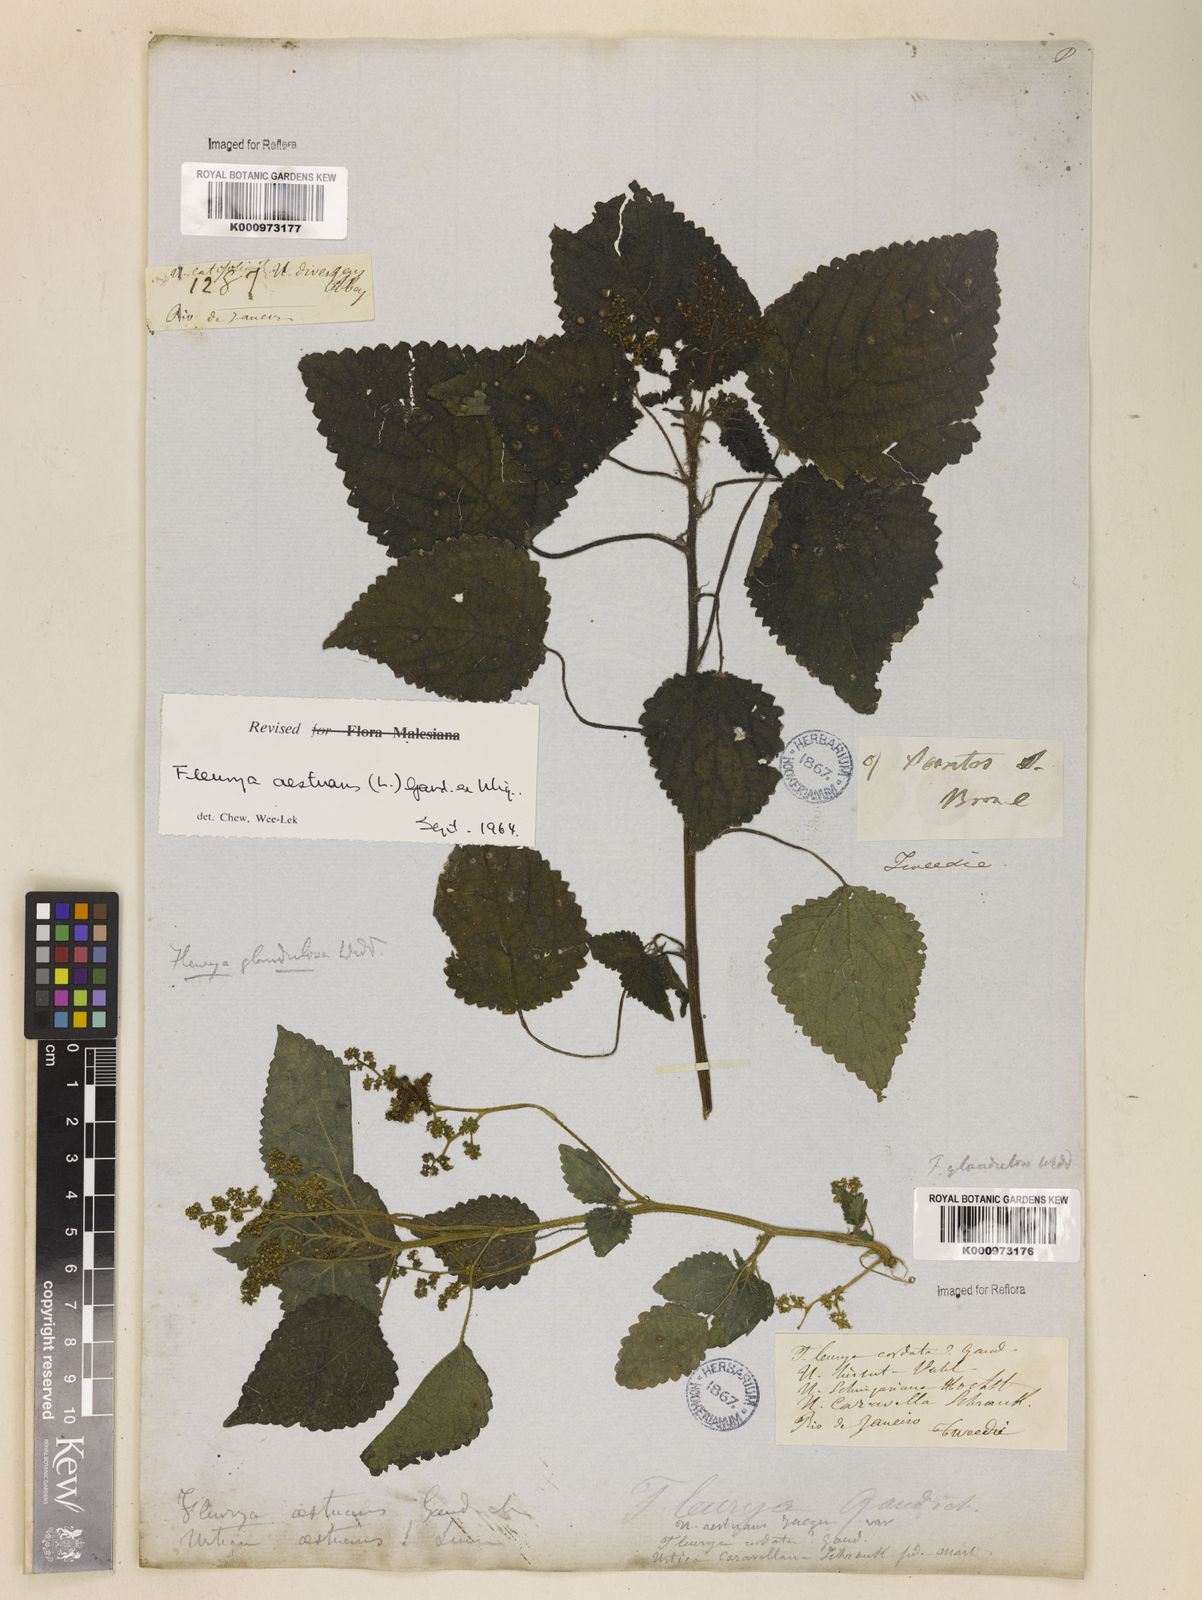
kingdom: Plantae
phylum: Tracheophyta
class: Magnoliopsida
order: Rosales
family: Urticaceae
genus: Laportea
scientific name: Laportea aestuans
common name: West indian woodnettle
